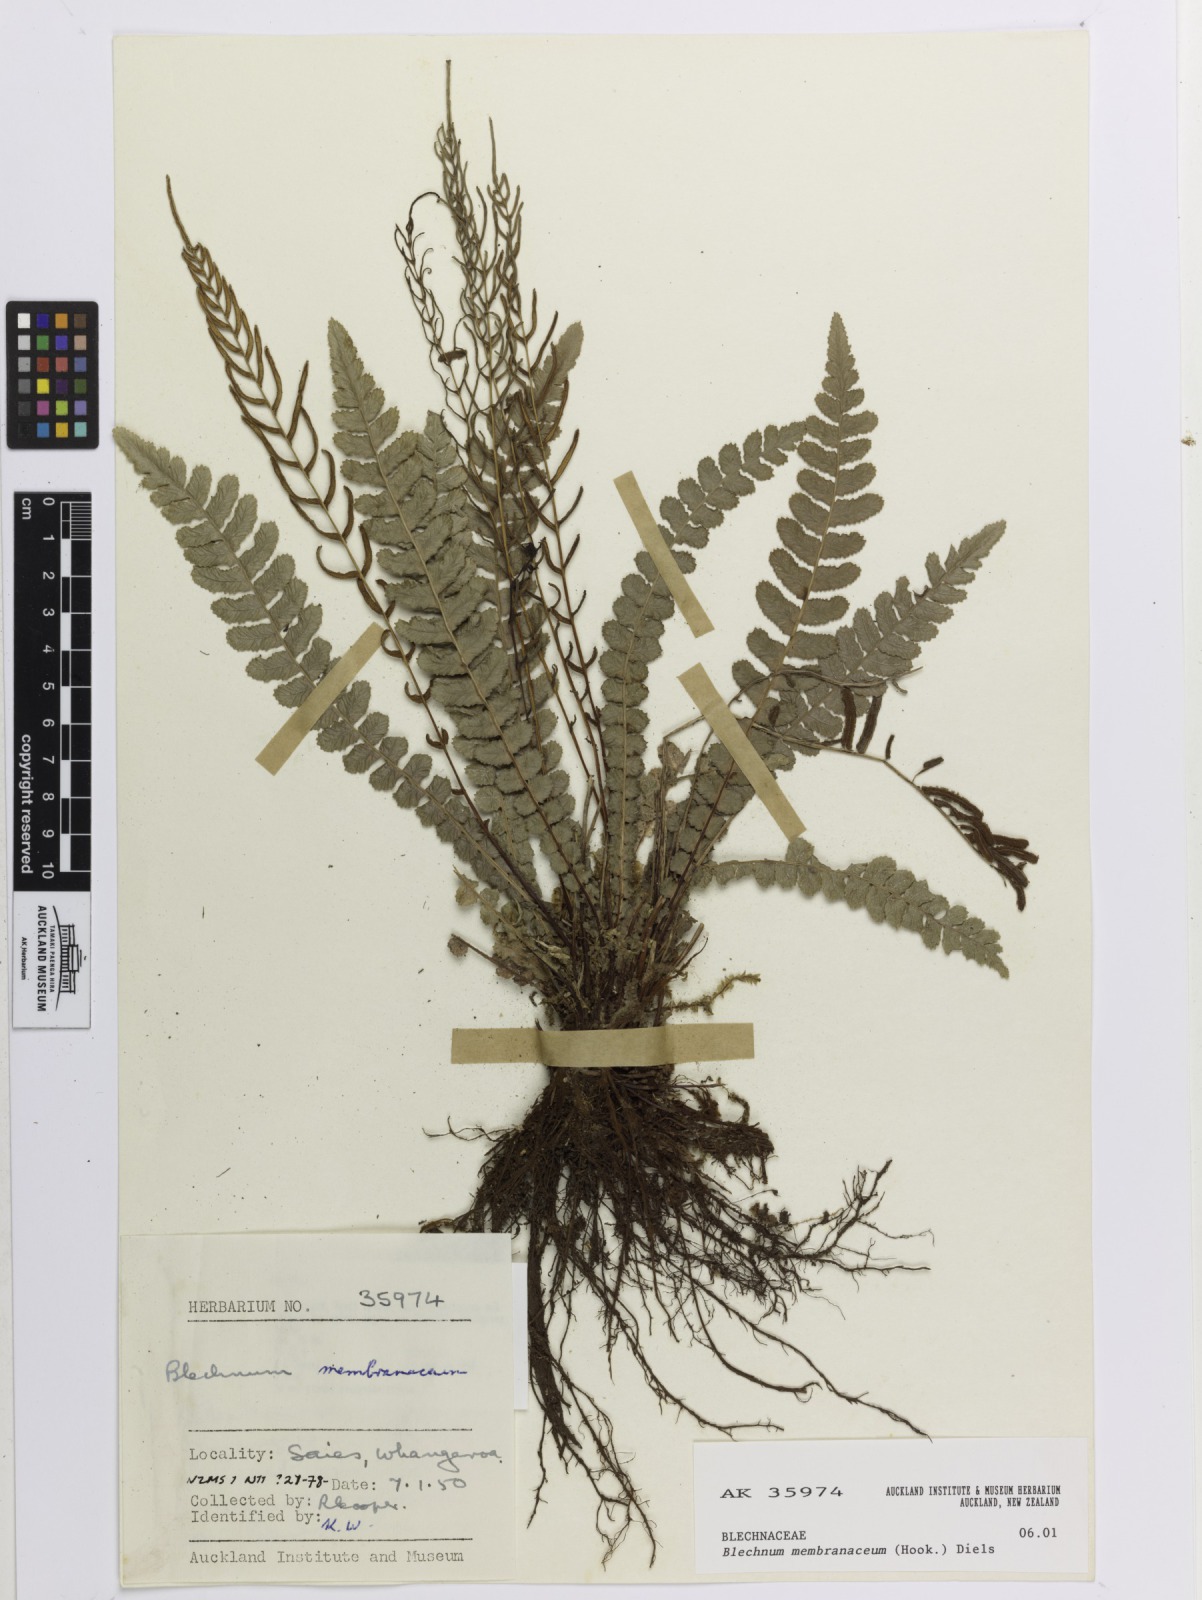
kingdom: Plantae
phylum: Tracheophyta
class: Polypodiopsida
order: Polypodiales
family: Blechnaceae
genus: Austroblechnum
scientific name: Austroblechnum membranaceum
